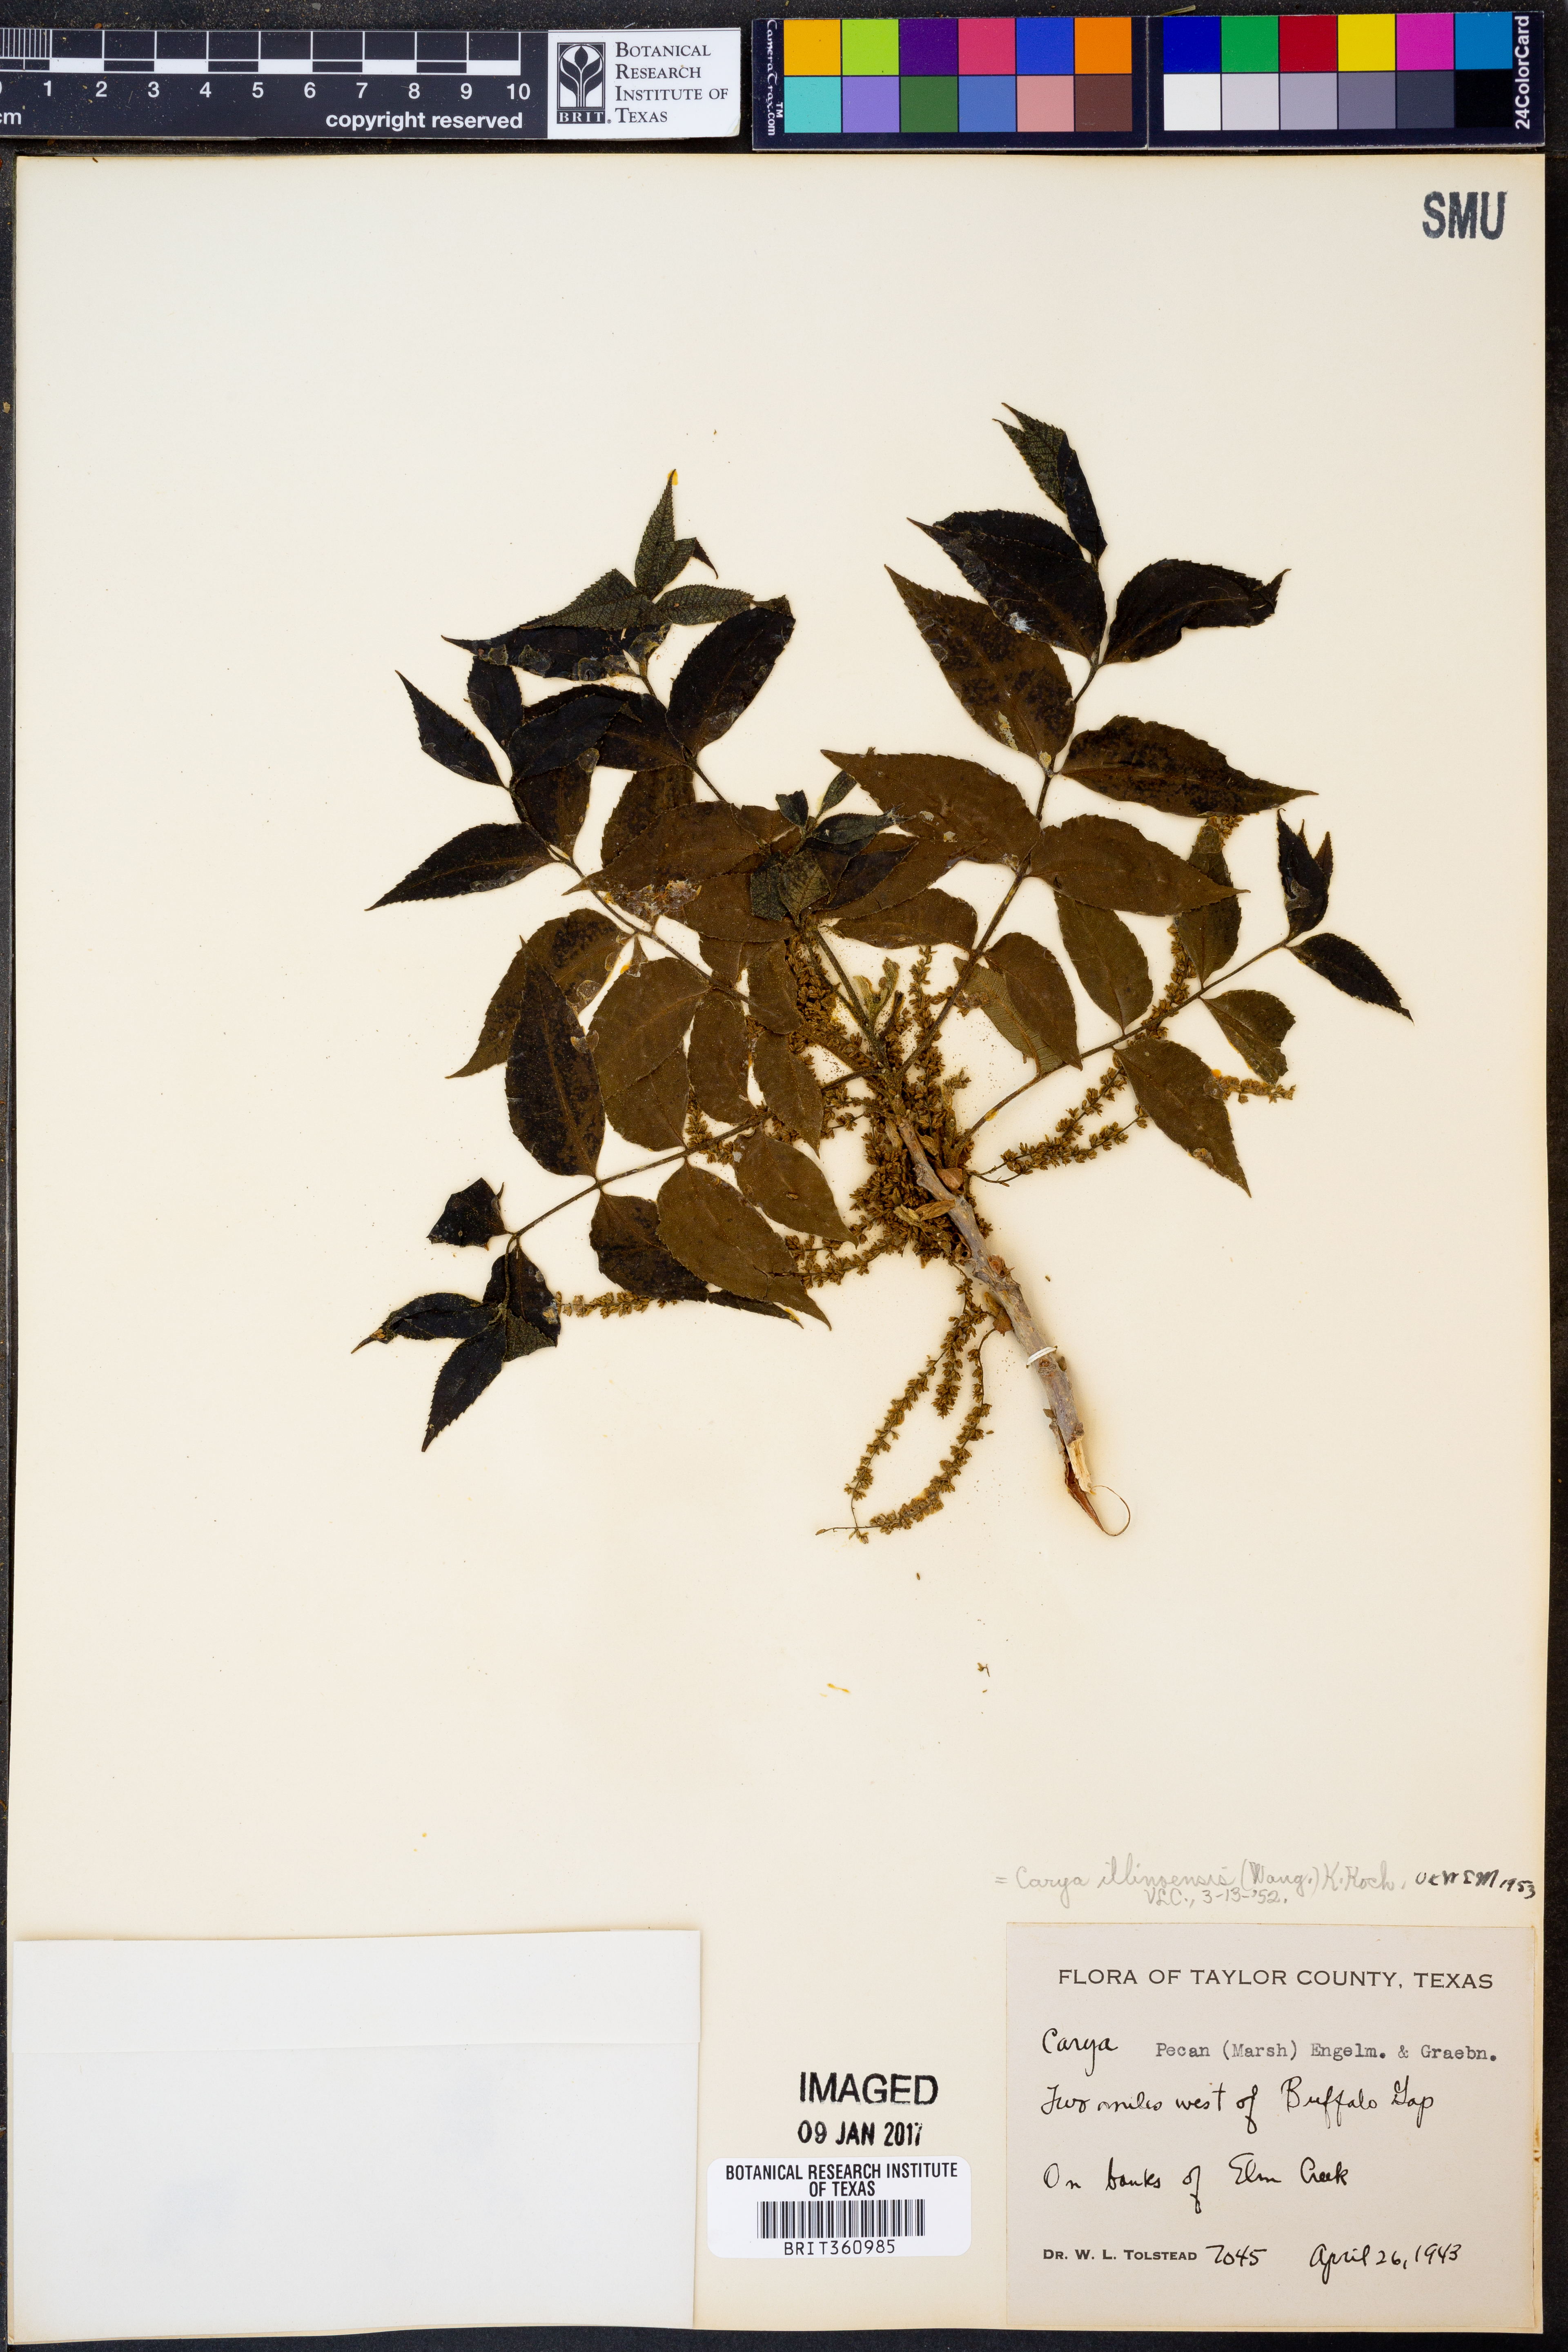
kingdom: Plantae
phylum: Tracheophyta
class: Magnoliopsida
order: Fagales
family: Juglandaceae
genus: Carya
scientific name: Carya illinoinensis
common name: Pecan
